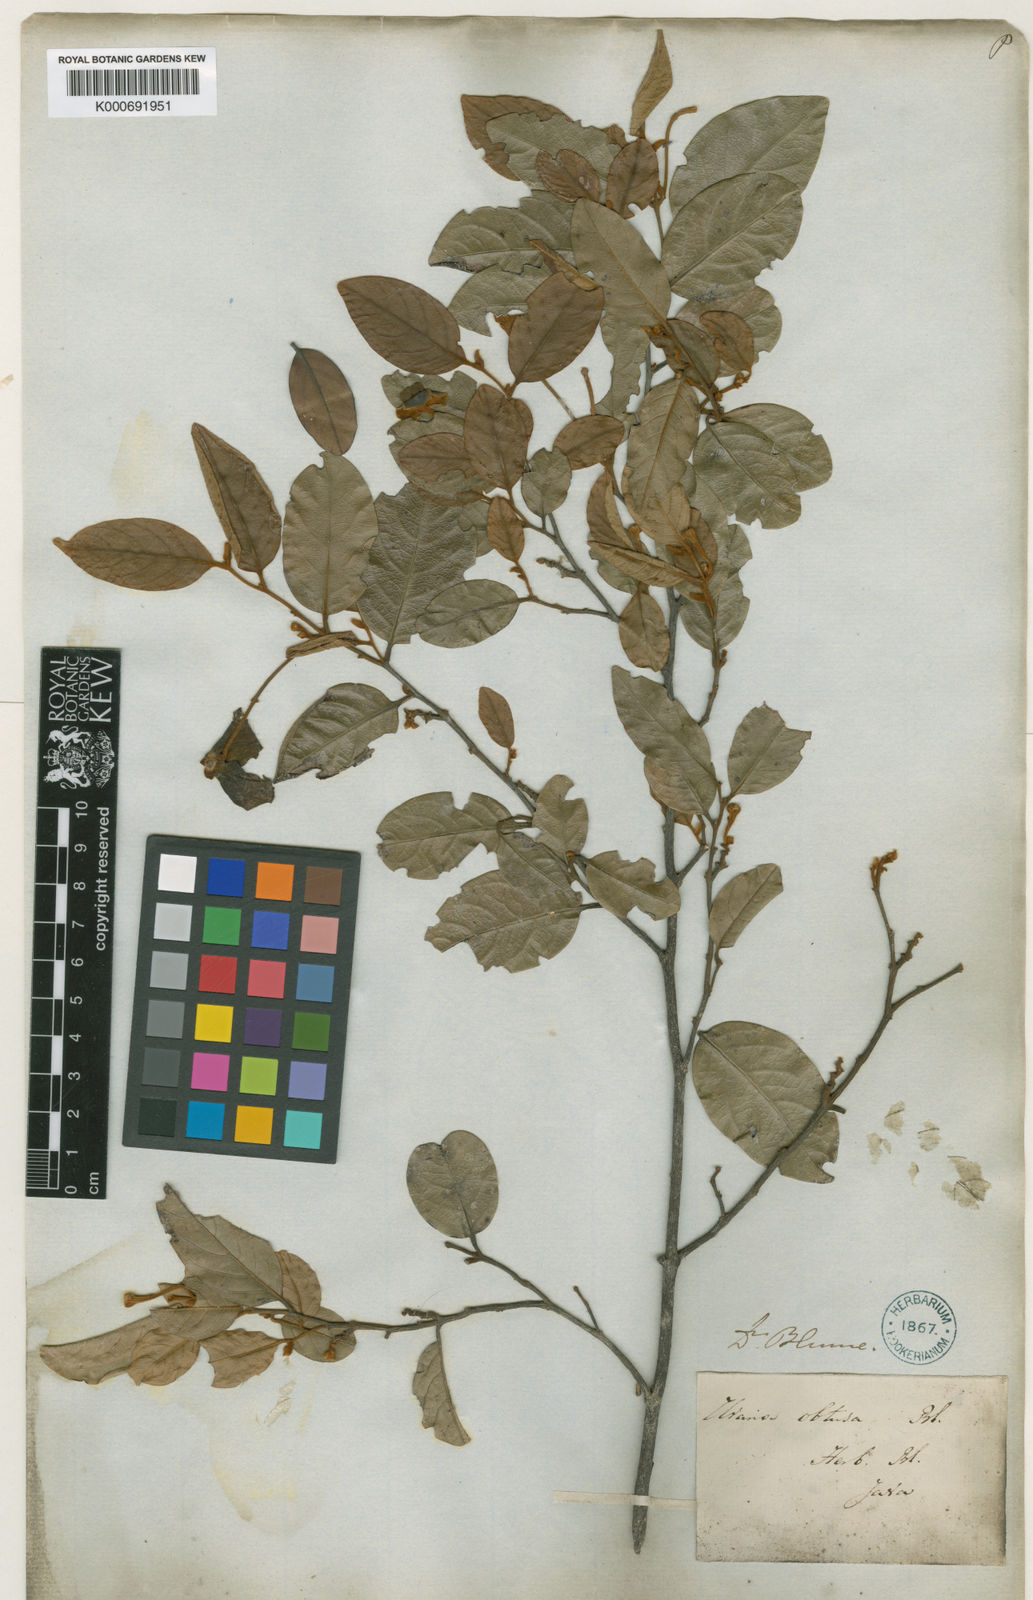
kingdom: Plantae
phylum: Tracheophyta
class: Magnoliopsida
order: Magnoliales
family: Annonaceae
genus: Mitrephora
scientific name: Mitrephora uniflora
